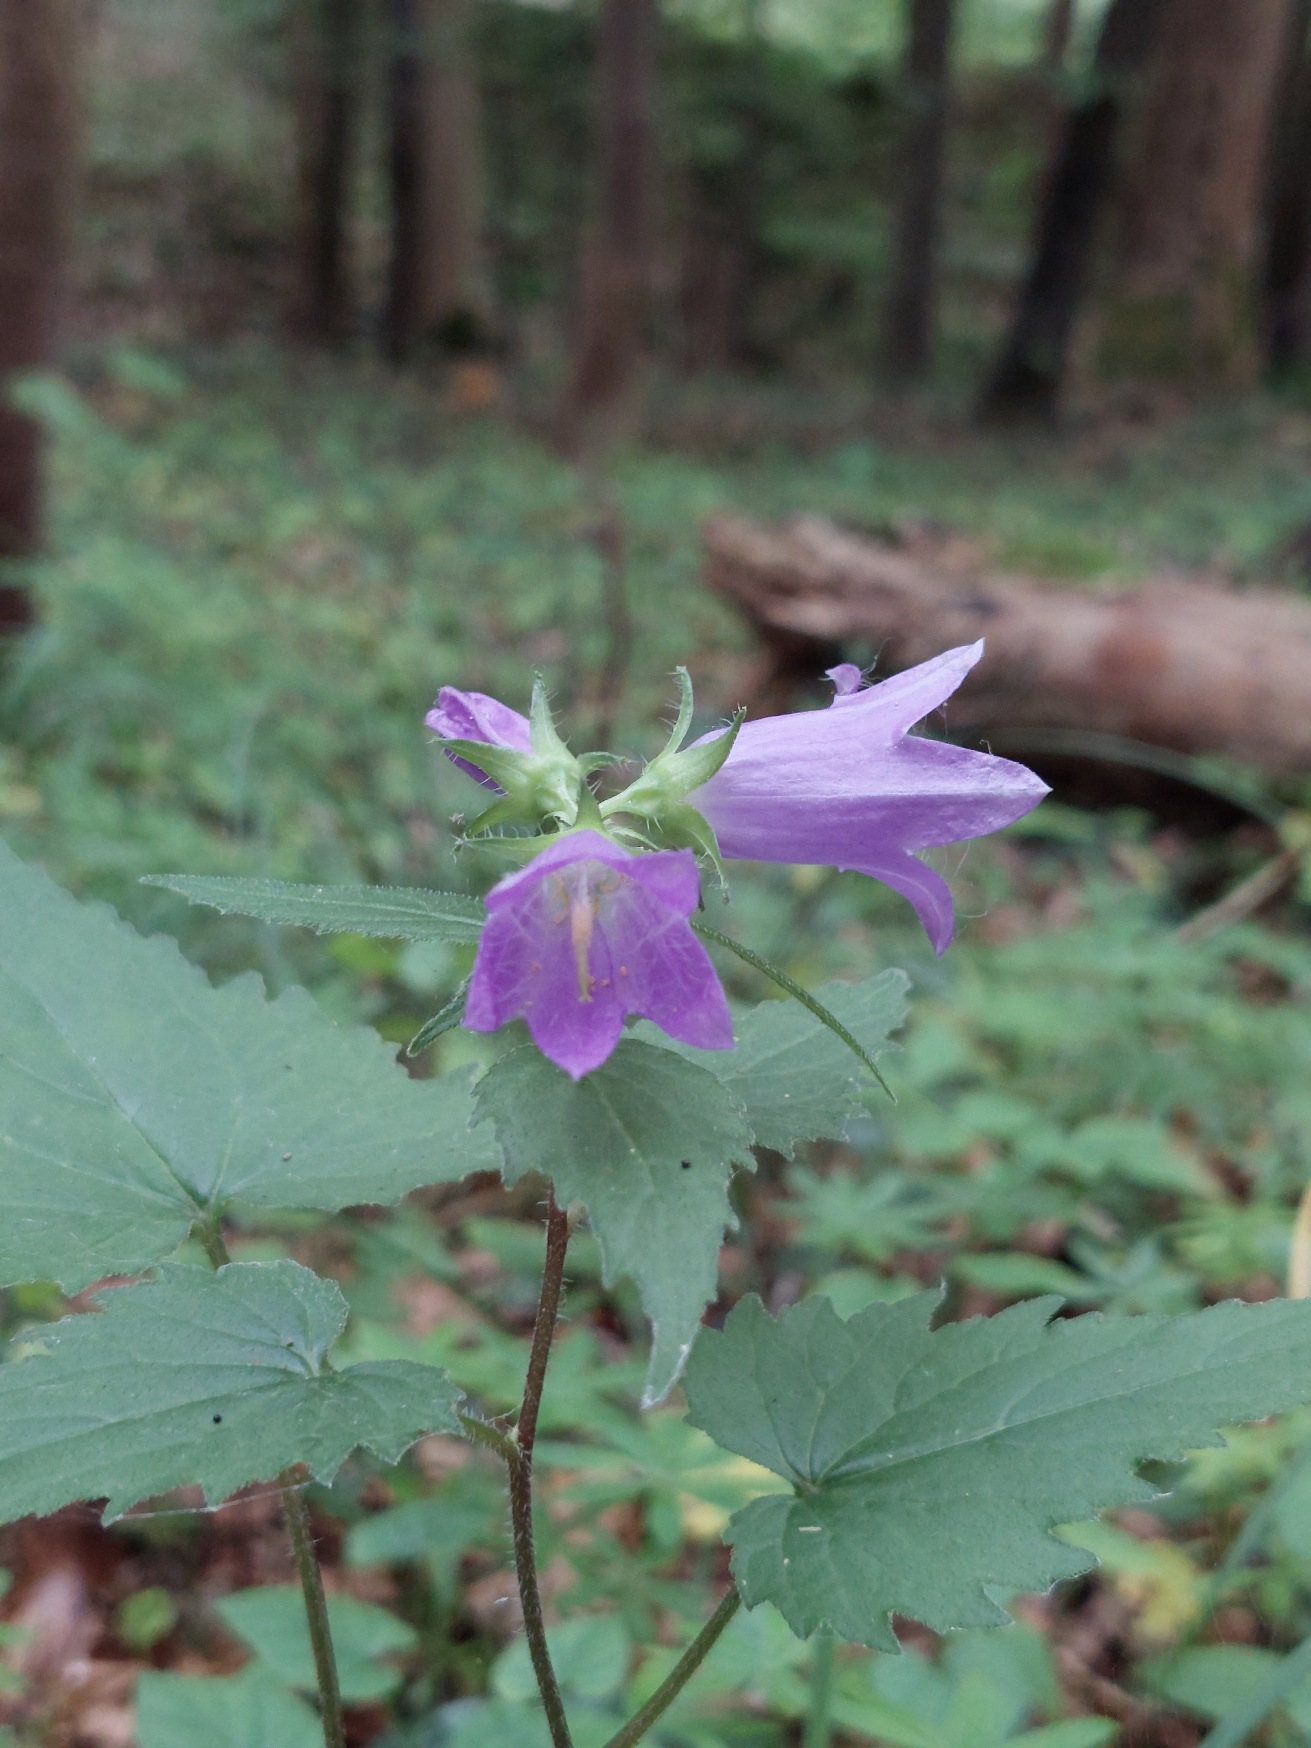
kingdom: Plantae
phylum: Tracheophyta
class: Magnoliopsida
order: Asterales
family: Campanulaceae
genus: Campanula
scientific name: Campanula trachelium
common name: Nælde-klokke
